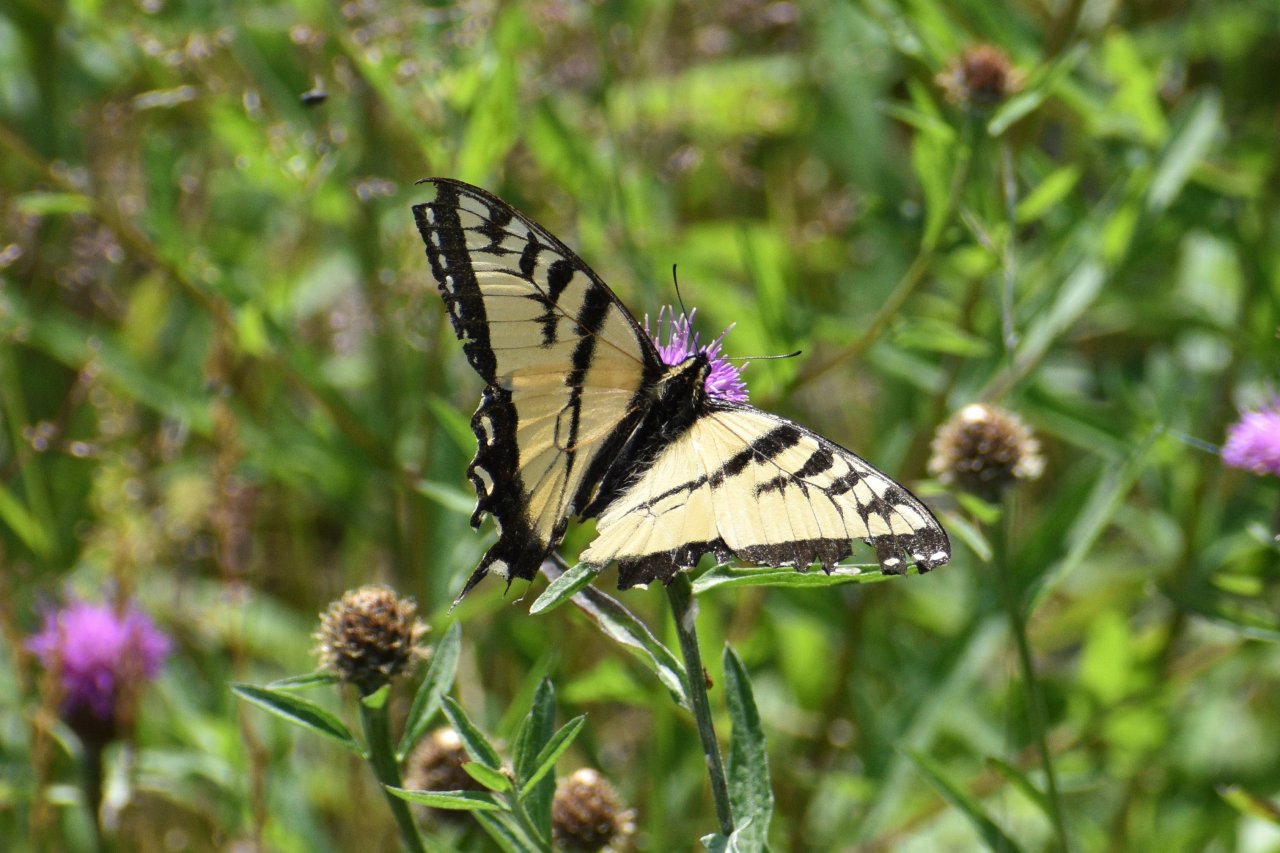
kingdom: Animalia
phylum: Arthropoda
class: Insecta
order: Lepidoptera
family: Papilionidae
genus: Pterourus
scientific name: Pterourus canadensis
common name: Canadian Tiger Swallowtail
